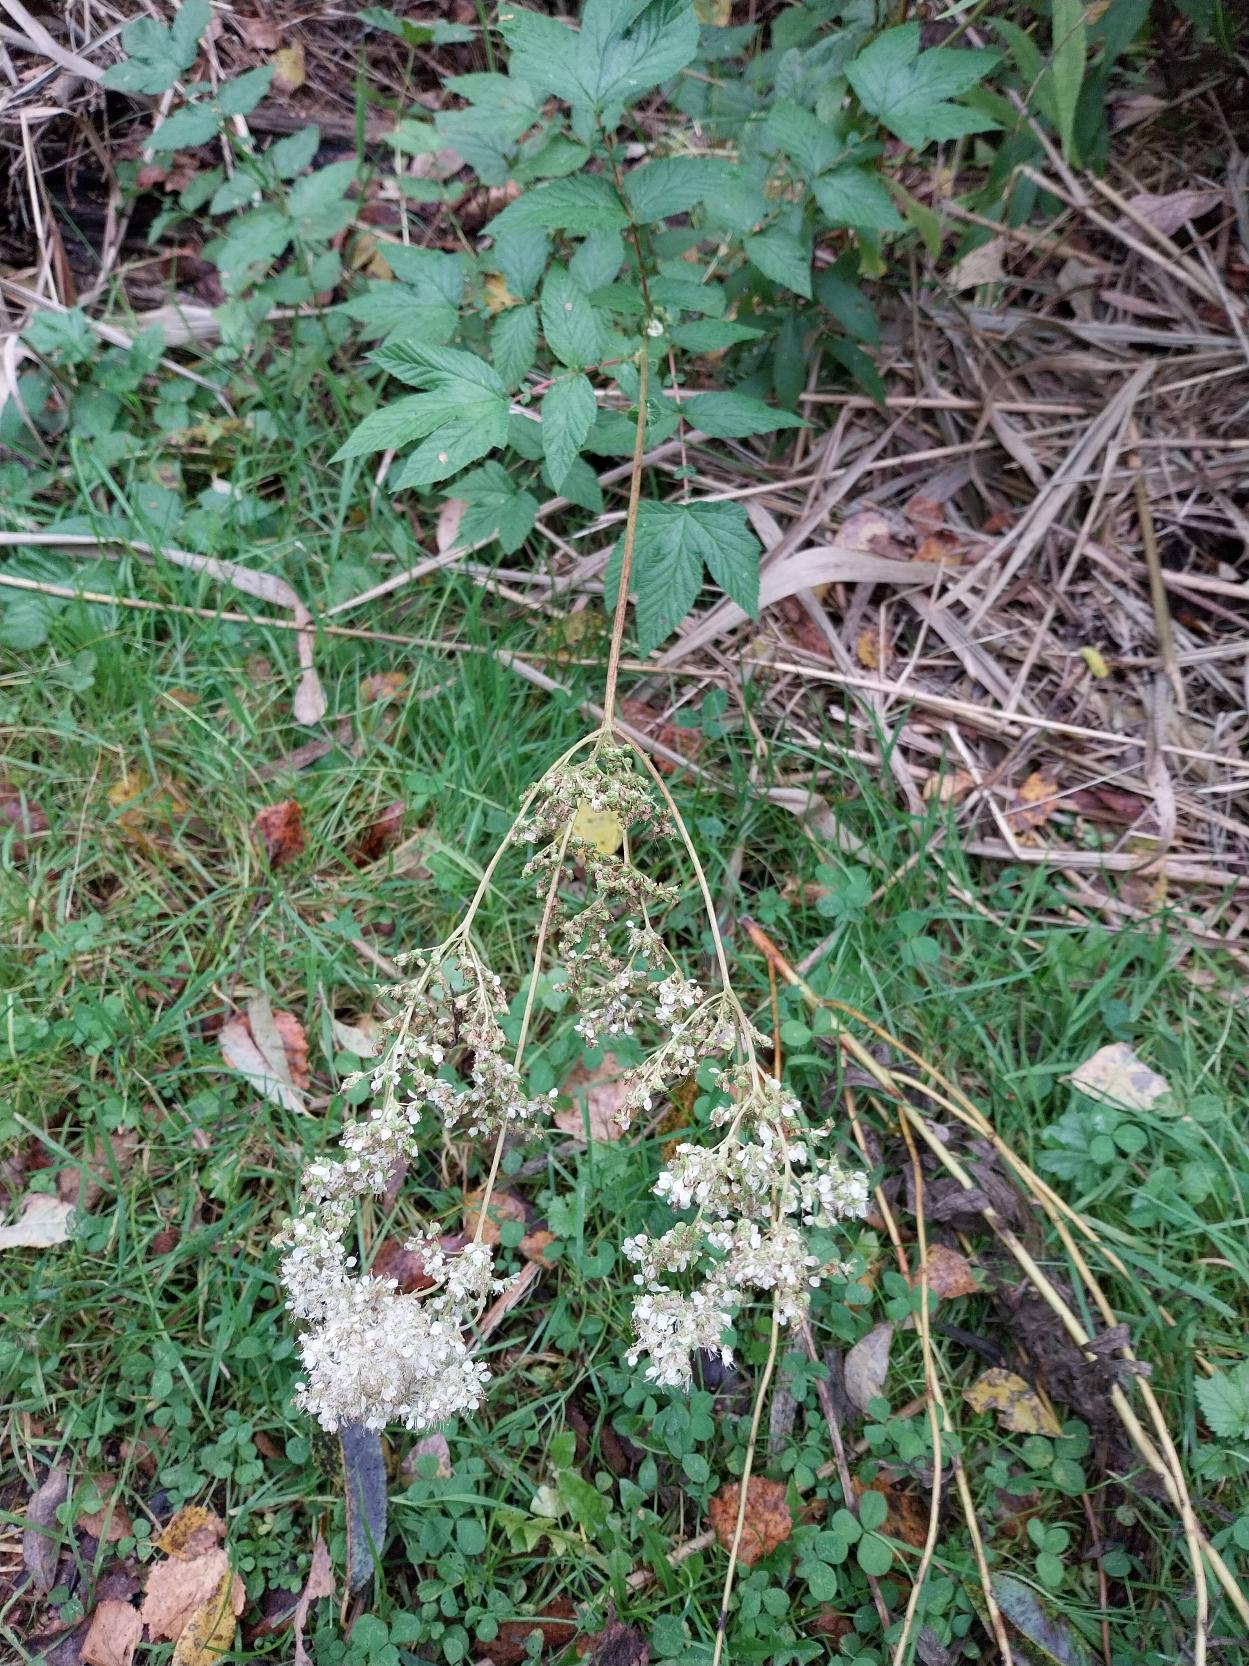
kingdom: Plantae
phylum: Tracheophyta
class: Magnoliopsida
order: Rosales
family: Rosaceae
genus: Filipendula
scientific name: Filipendula ulmaria
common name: Almindelig mjødurt
